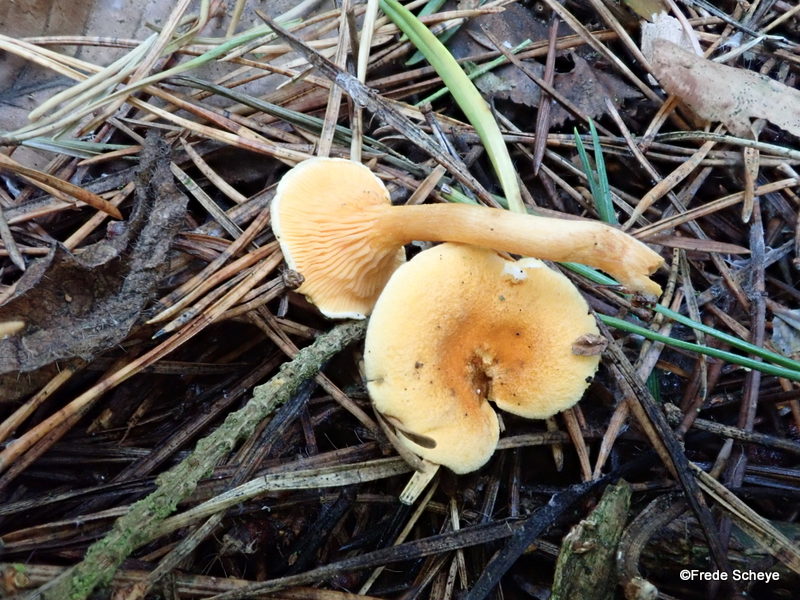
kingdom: Fungi
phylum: Basidiomycota
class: Agaricomycetes
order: Boletales
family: Hygrophoropsidaceae
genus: Hygrophoropsis
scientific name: Hygrophoropsis aurantiaca
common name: almindelig orangekantarel
